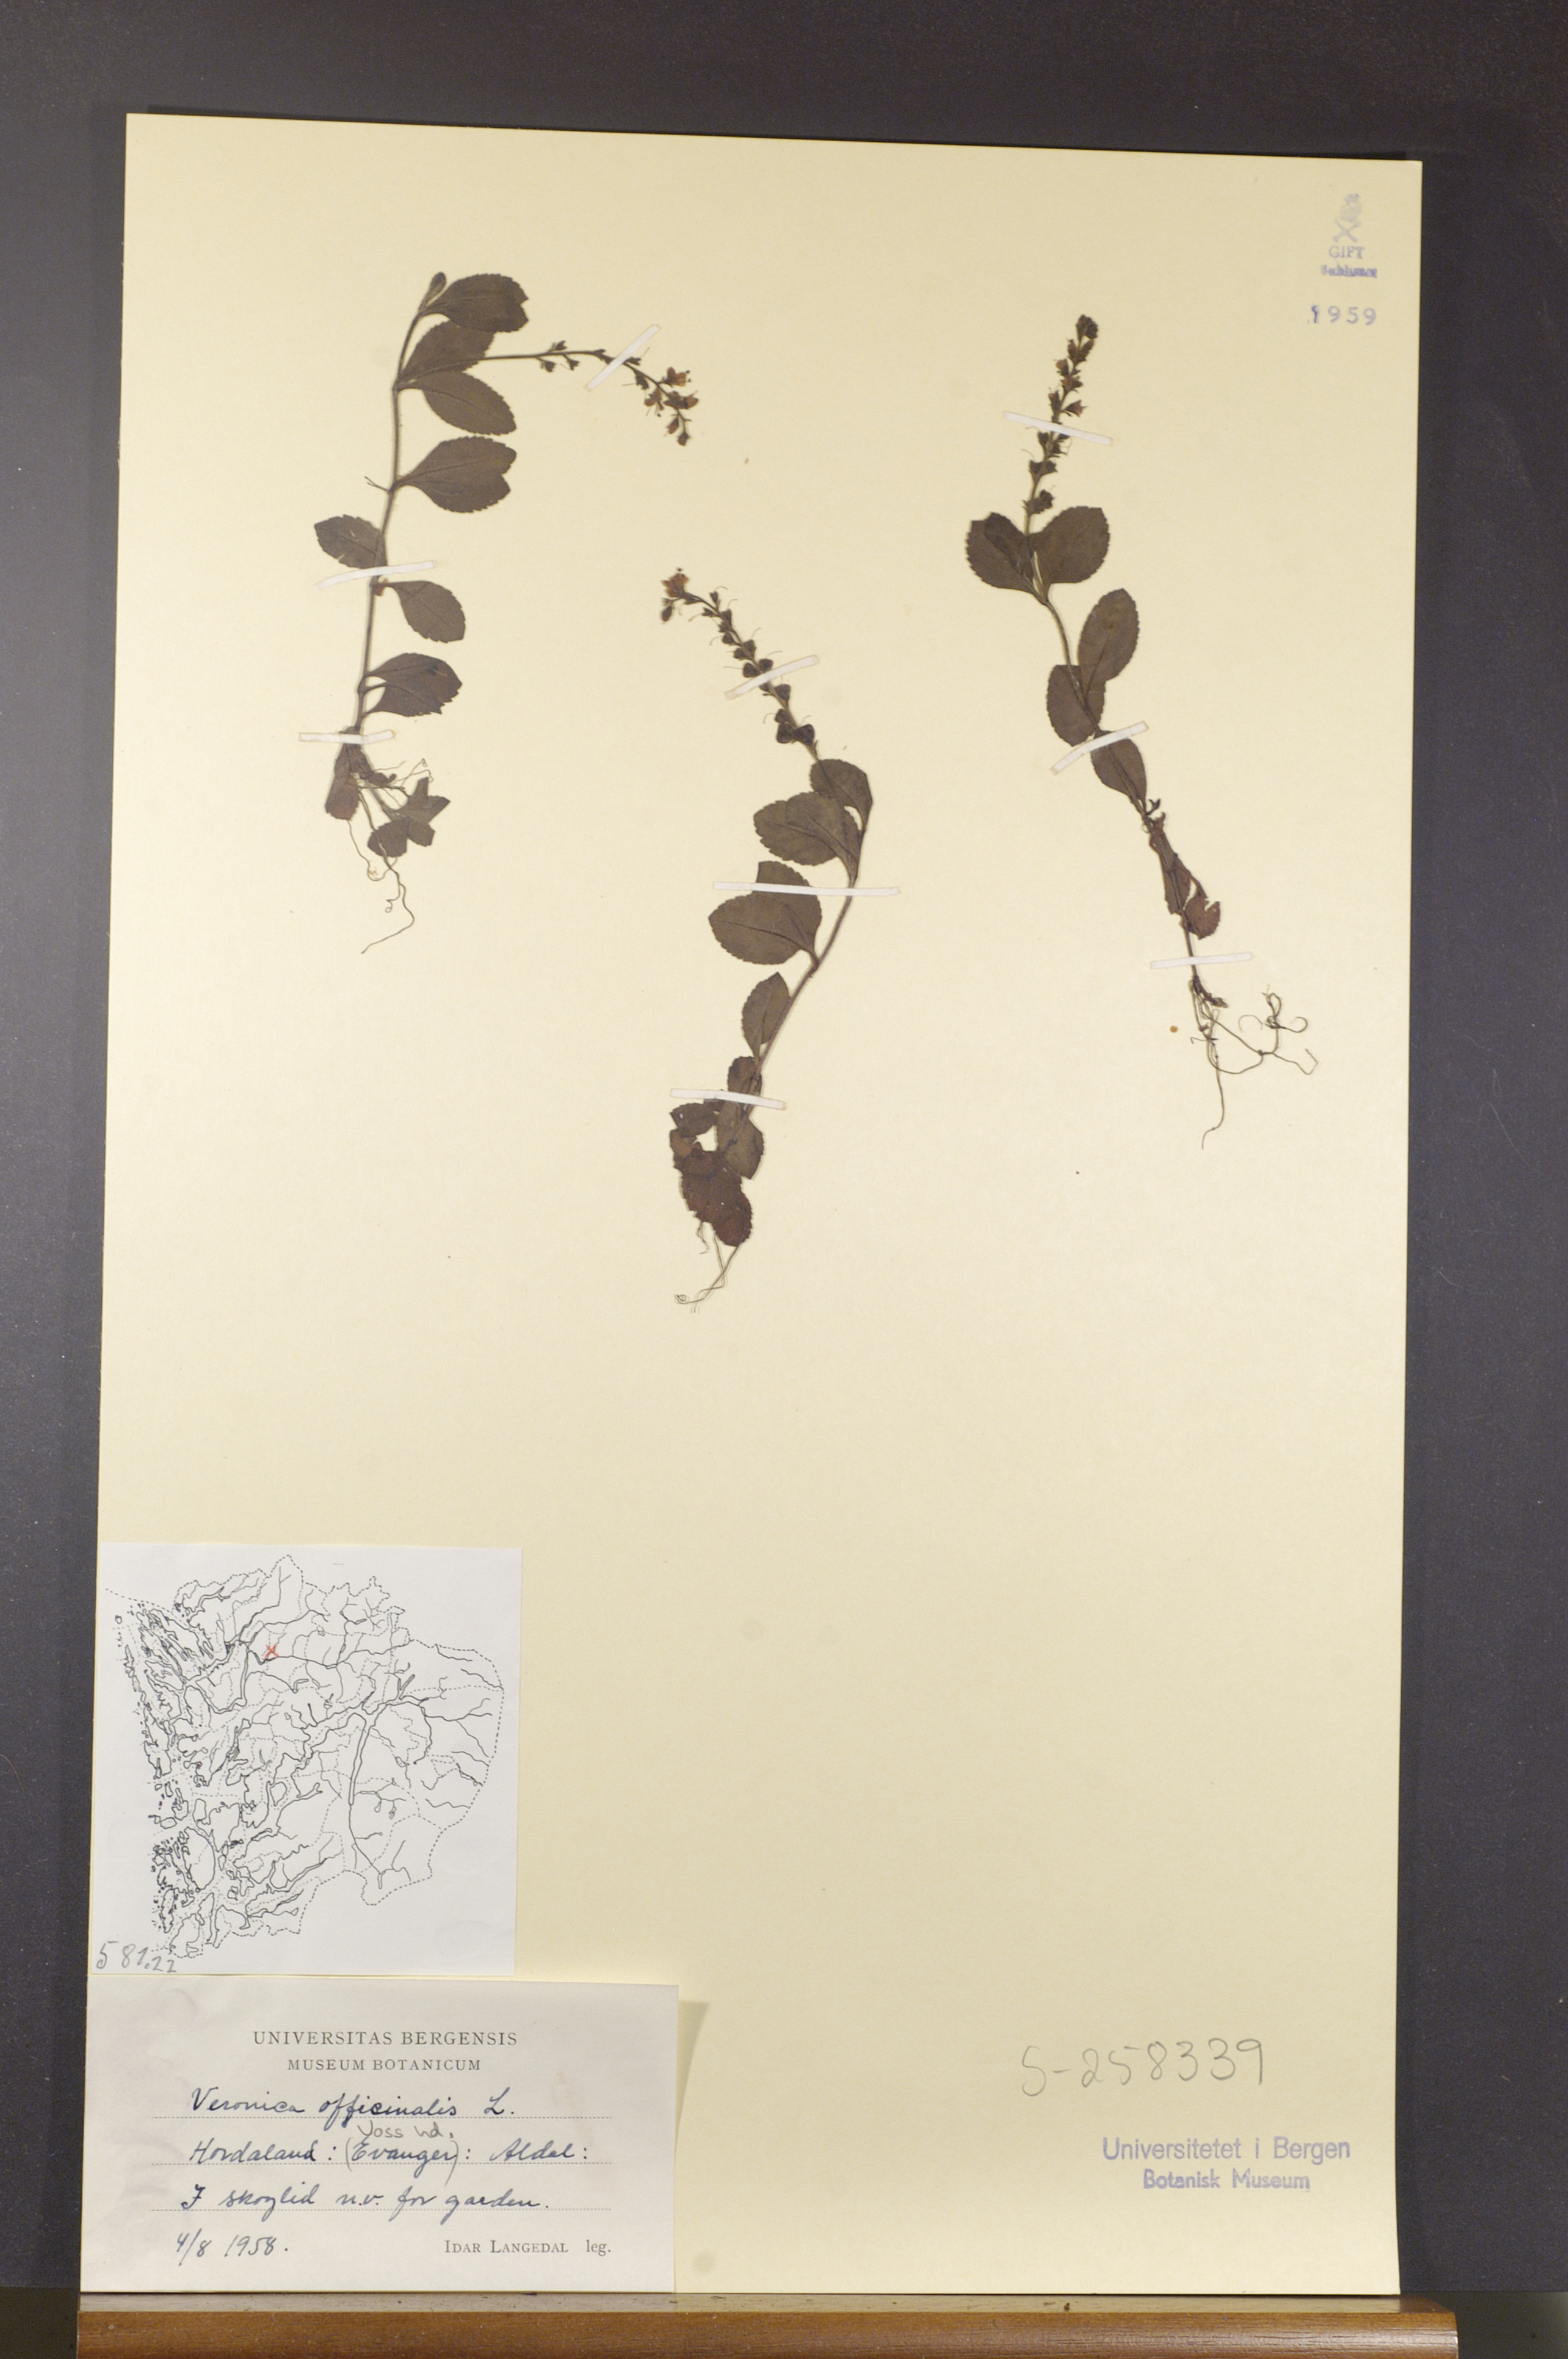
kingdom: Plantae
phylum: Tracheophyta
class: Magnoliopsida
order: Lamiales
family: Plantaginaceae
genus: Veronica
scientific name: Veronica officinalis
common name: Common speedwell
